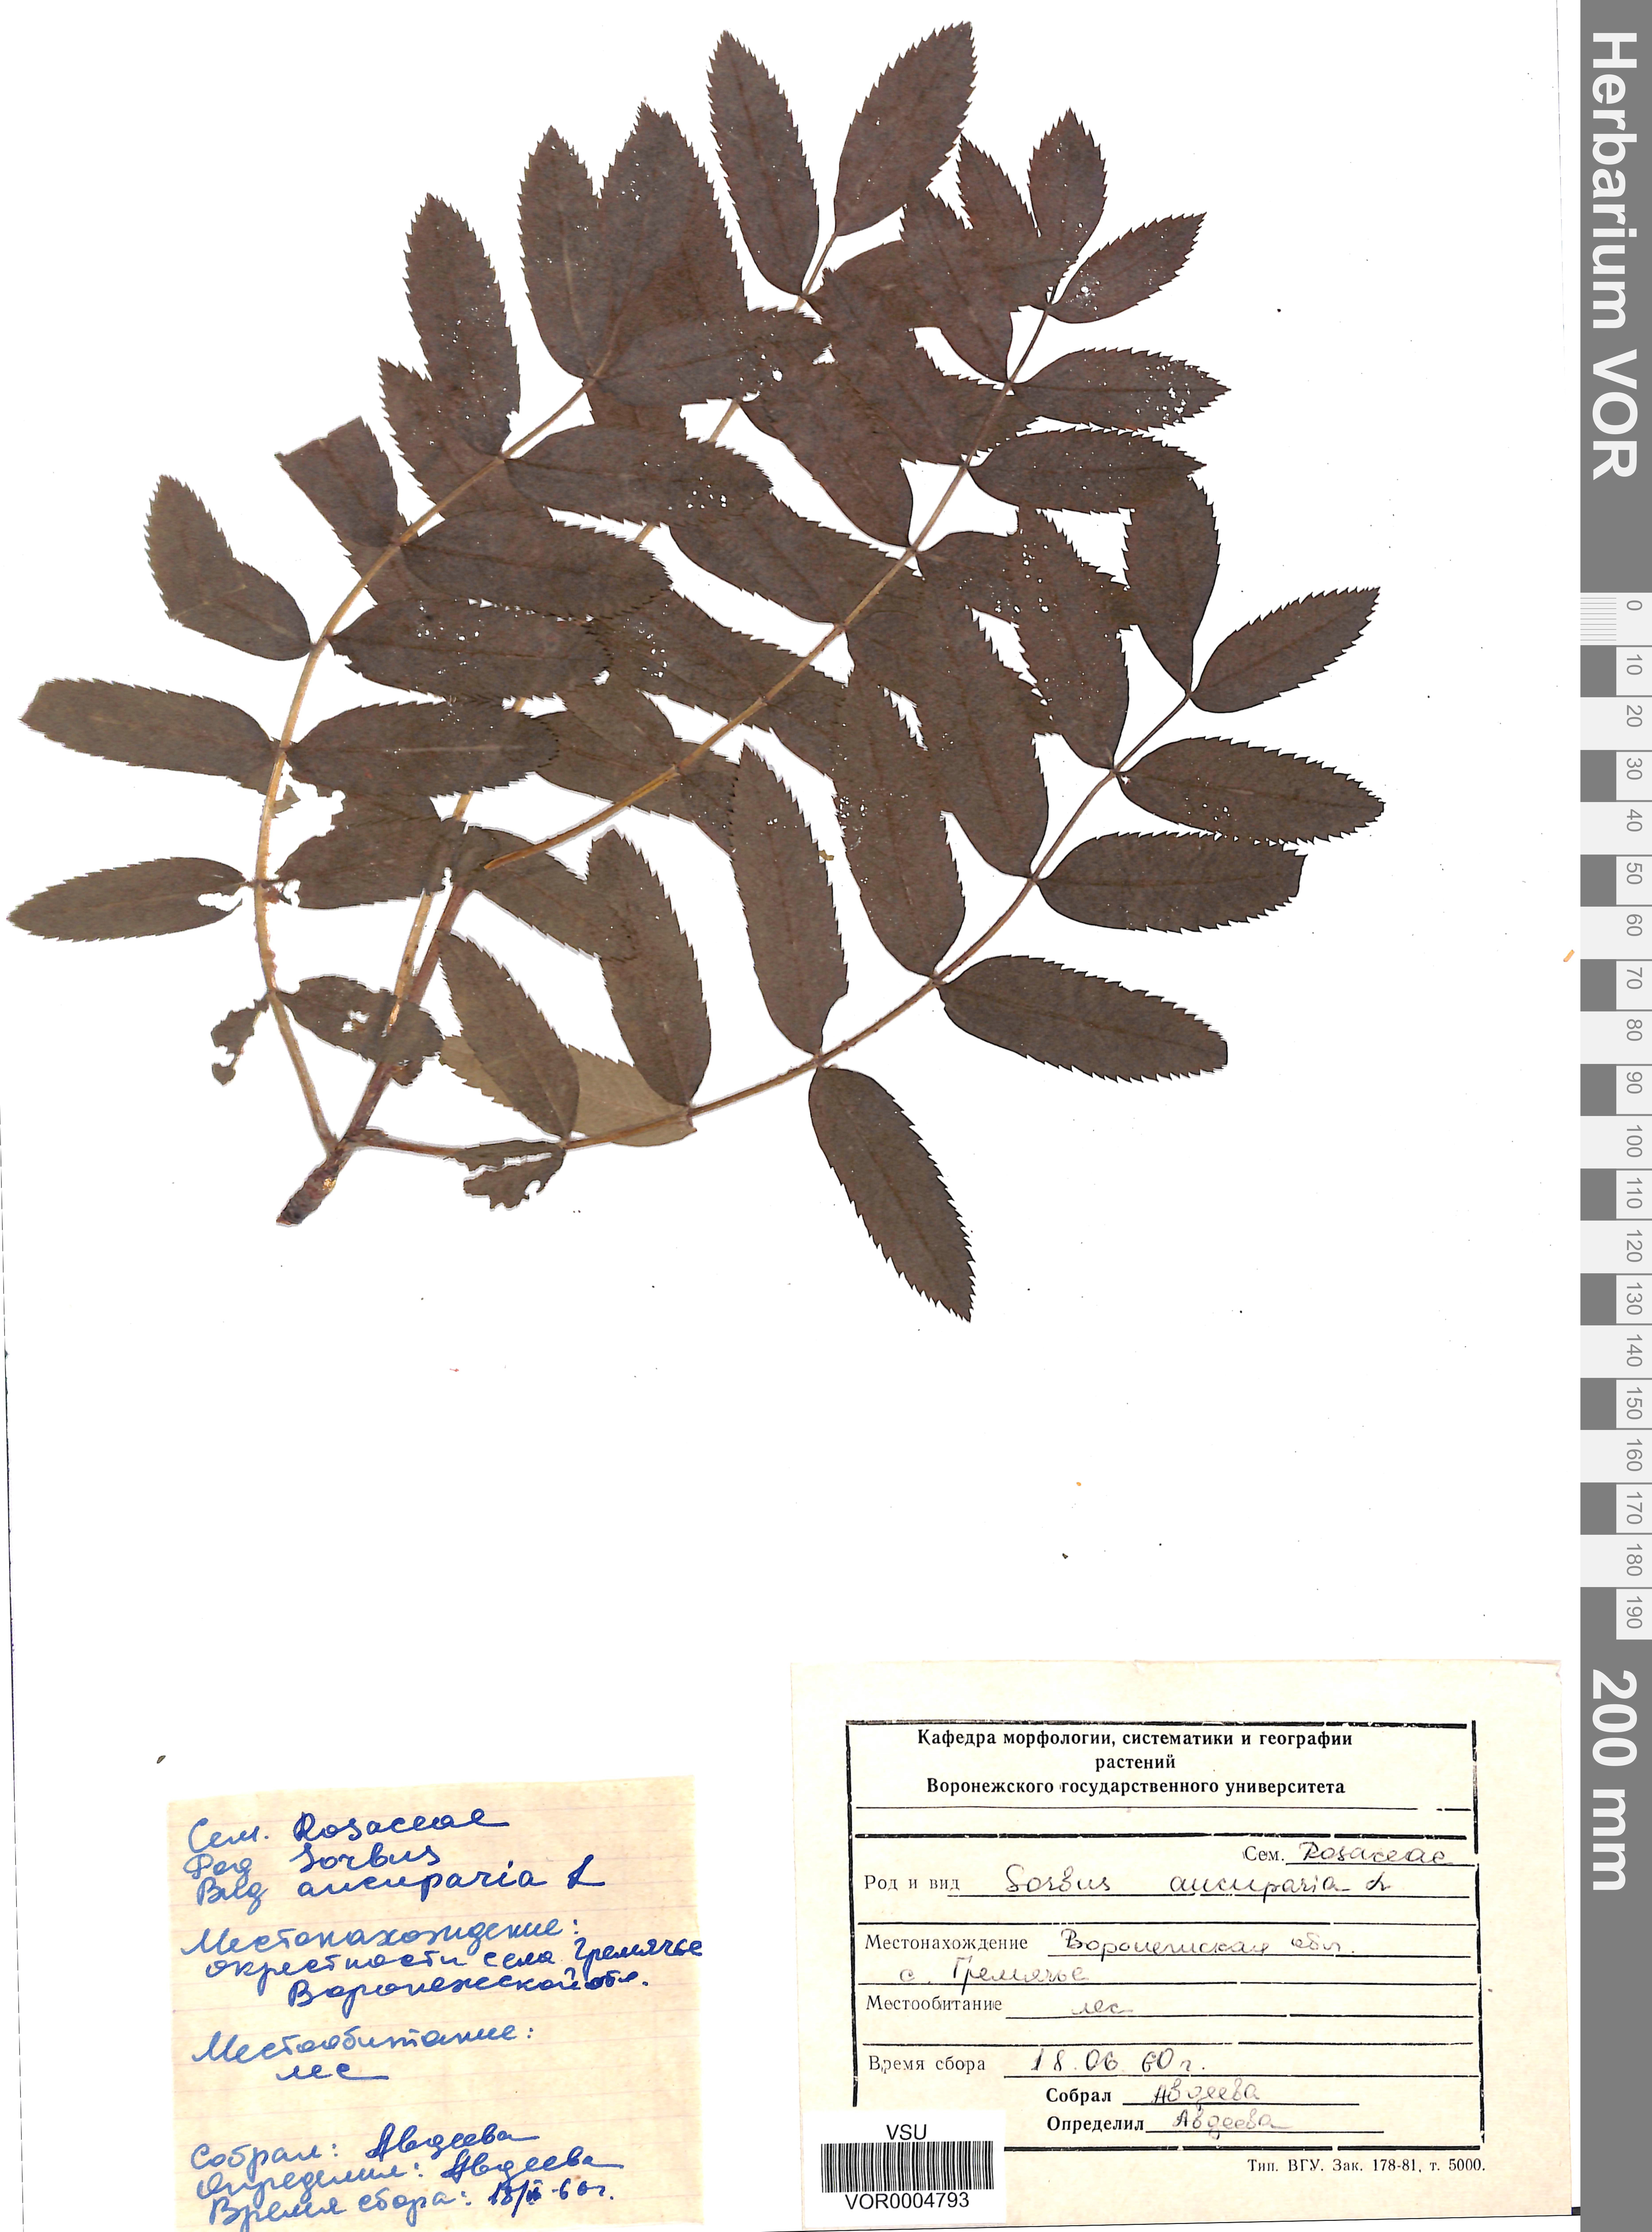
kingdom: Plantae
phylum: Tracheophyta
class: Magnoliopsida
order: Rosales
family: Rosaceae
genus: Sorbus
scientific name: Sorbus aucuparia
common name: Rowan
